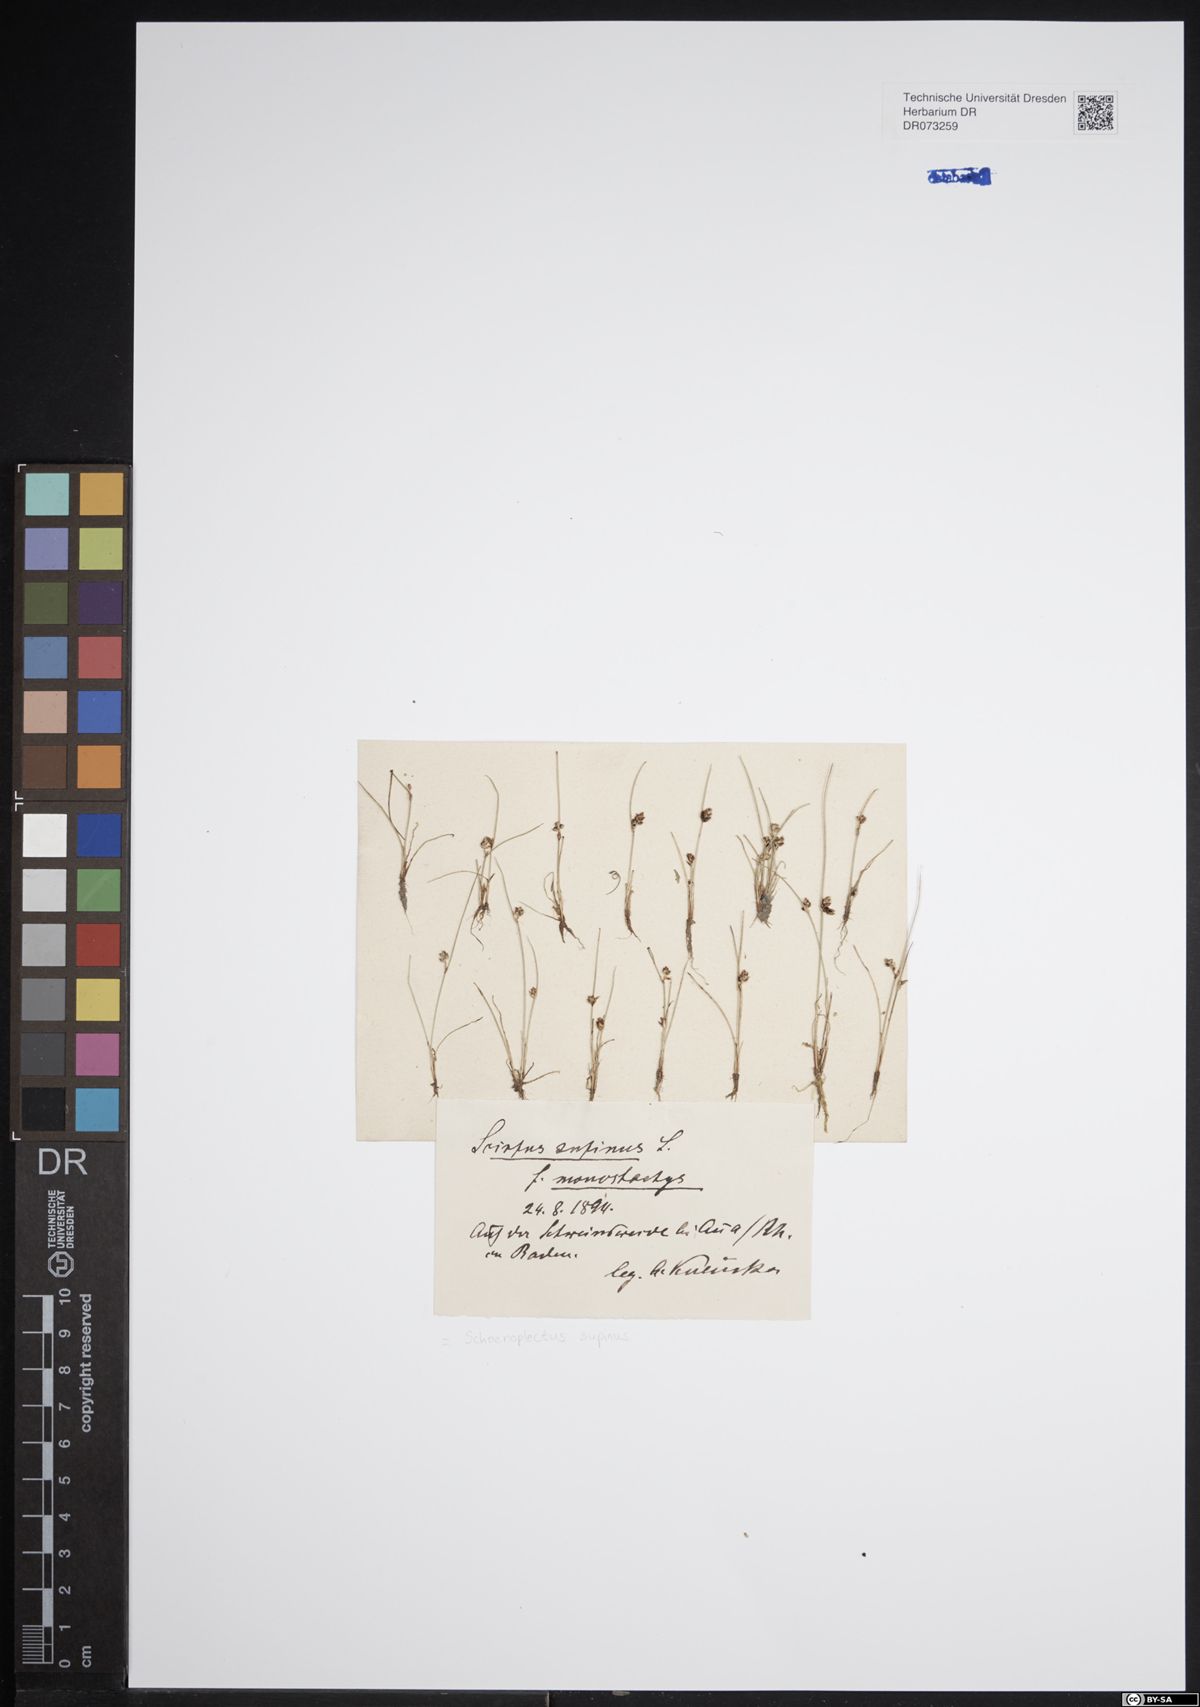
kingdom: Plantae
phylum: Tracheophyta
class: Liliopsida
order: Poales
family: Cyperaceae
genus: Schoenoplectiella
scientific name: Schoenoplectiella supina
